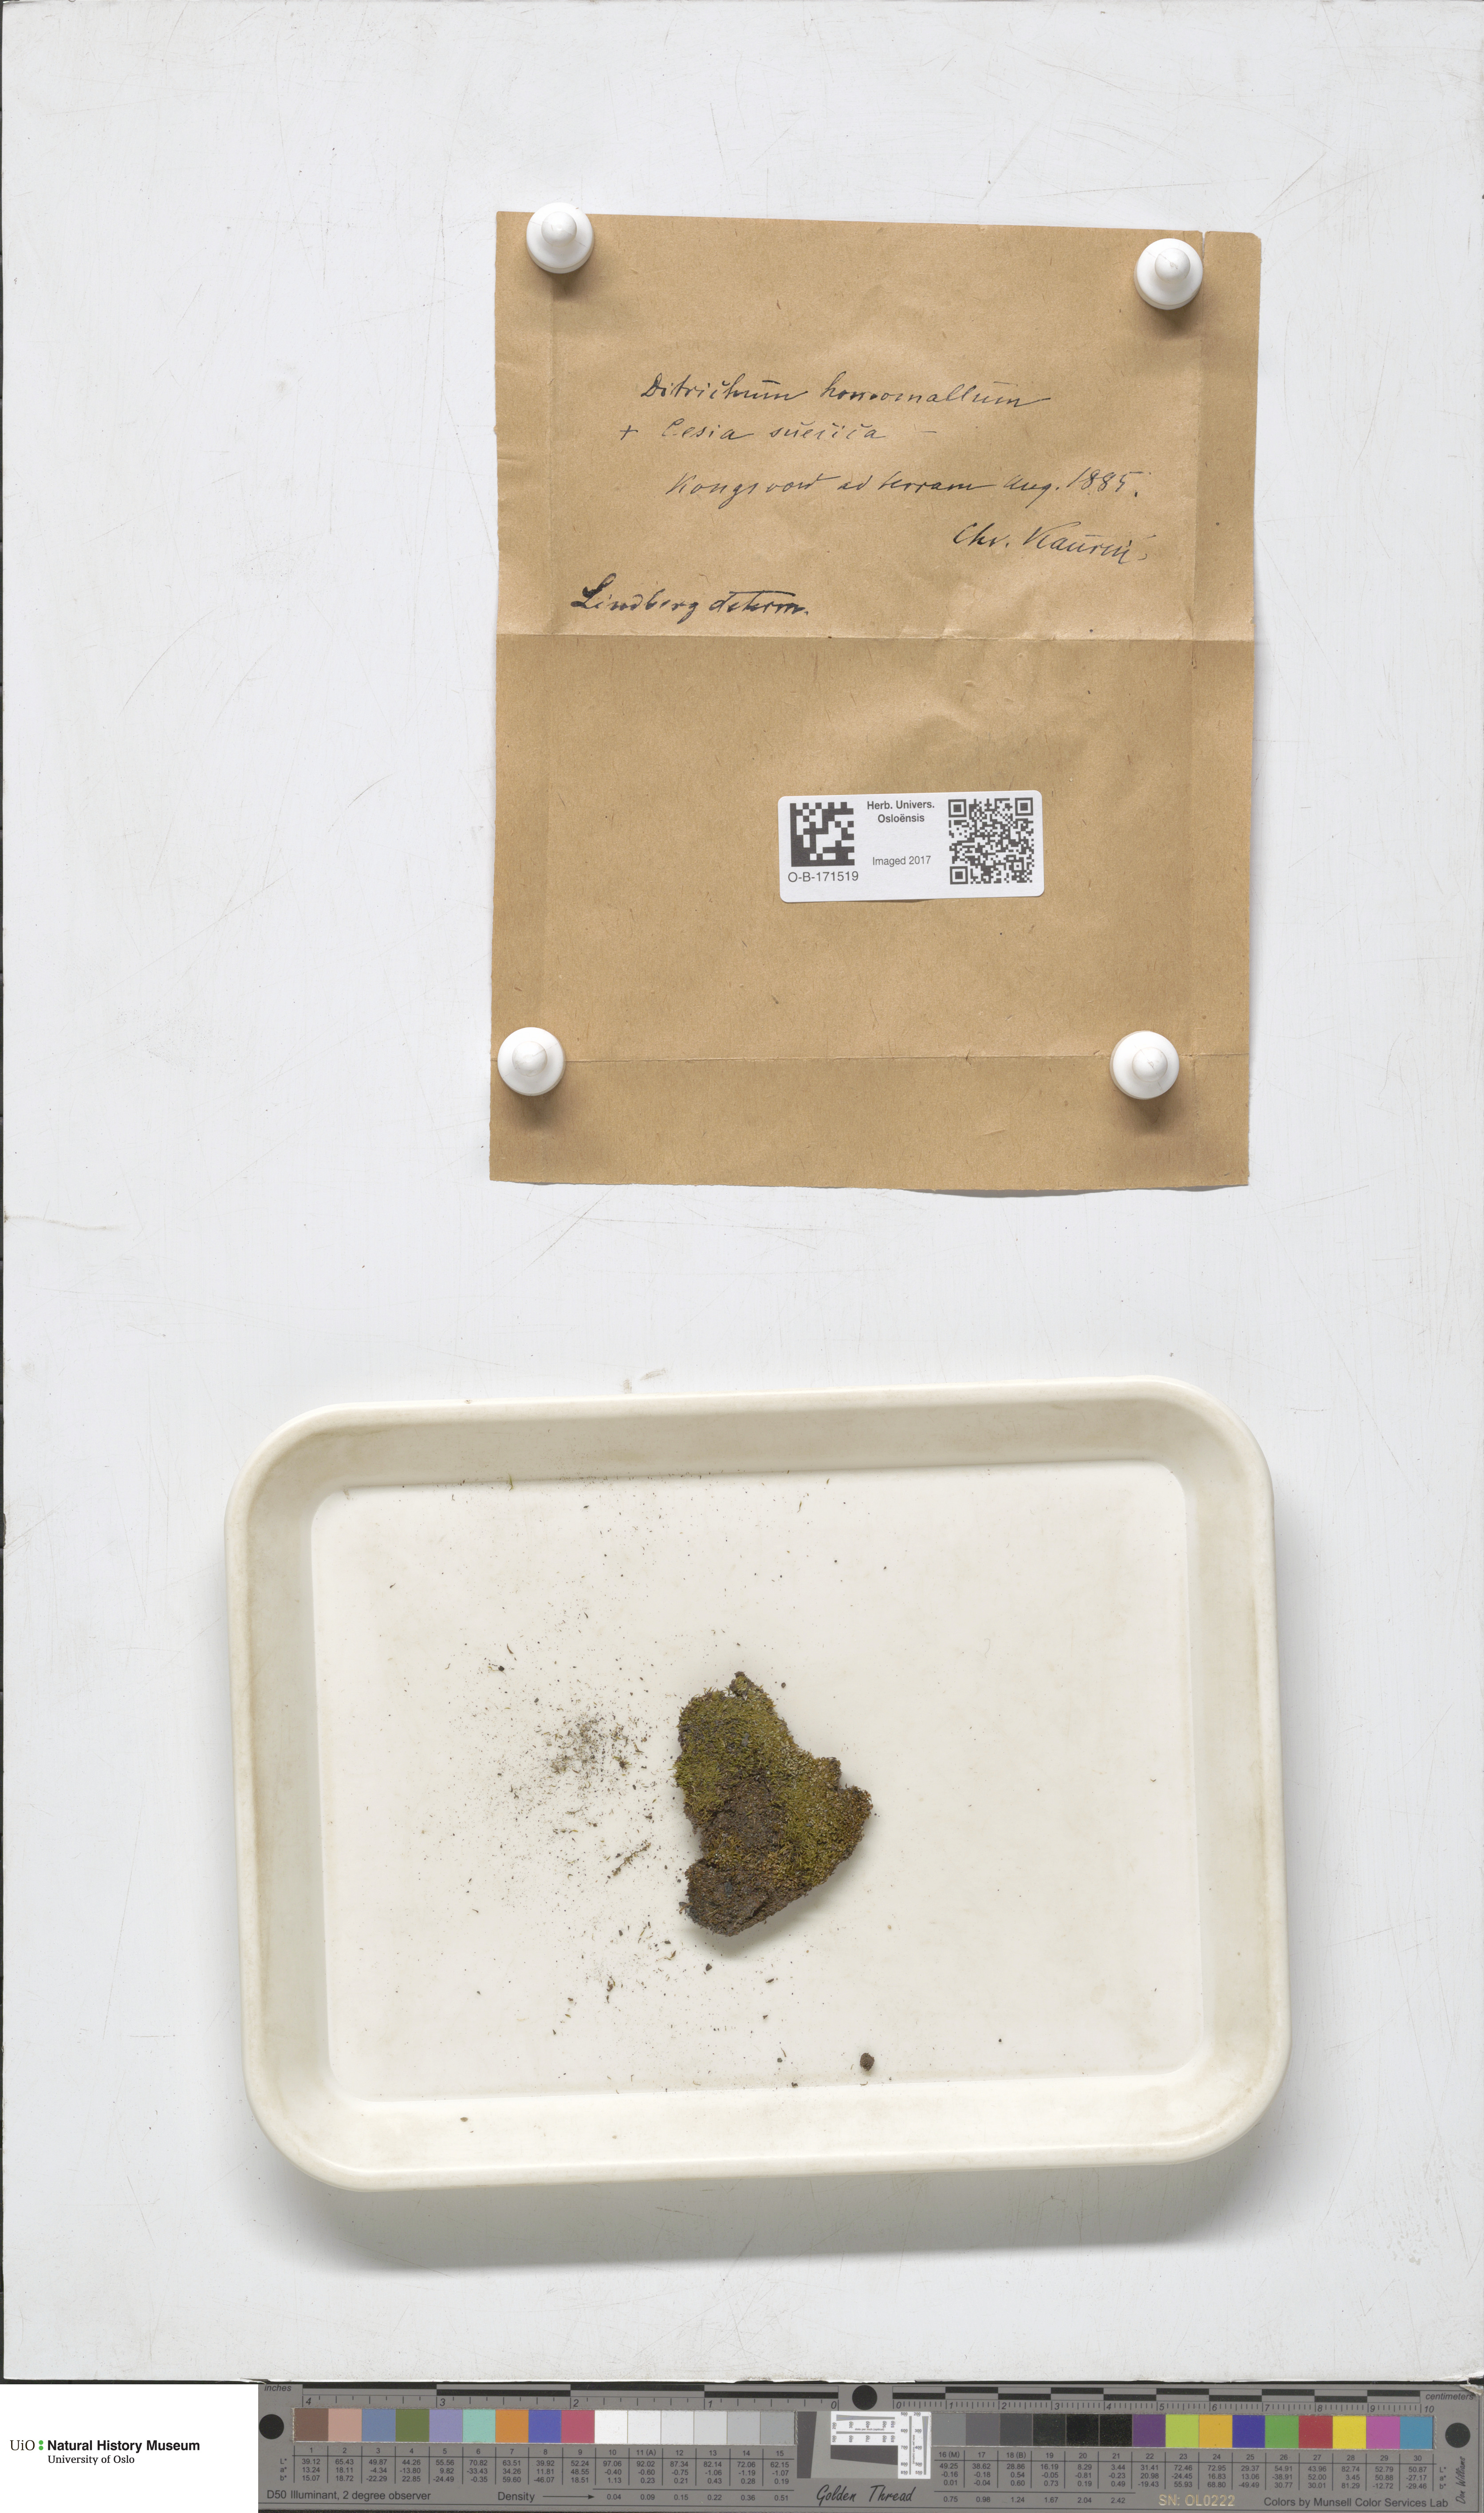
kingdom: Plantae
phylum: Bryophyta
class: Bryopsida
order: Dicranales
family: Ditrichaceae
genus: Ditrichum
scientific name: Ditrichum heteromallum
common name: Curve-leaved ditrichum
